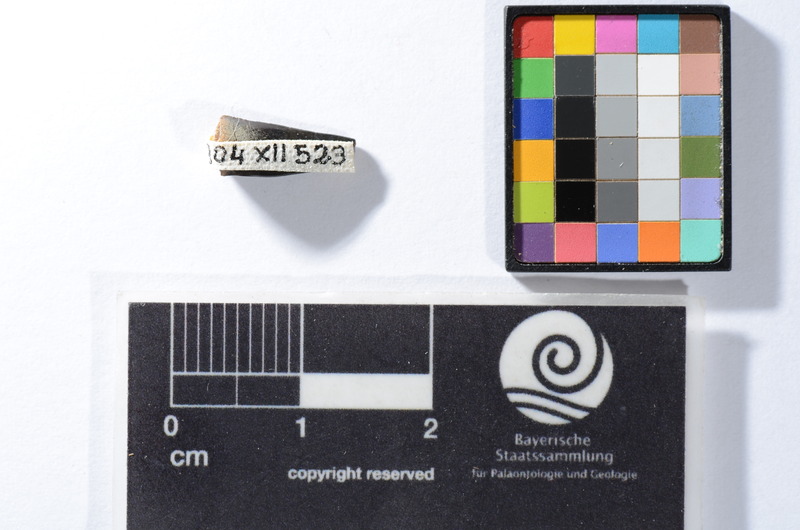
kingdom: Animalia
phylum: Chordata
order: Perciformes
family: Sphyraenidae
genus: Sphyraena
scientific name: Sphyraena Saurocephalus fajumensis
